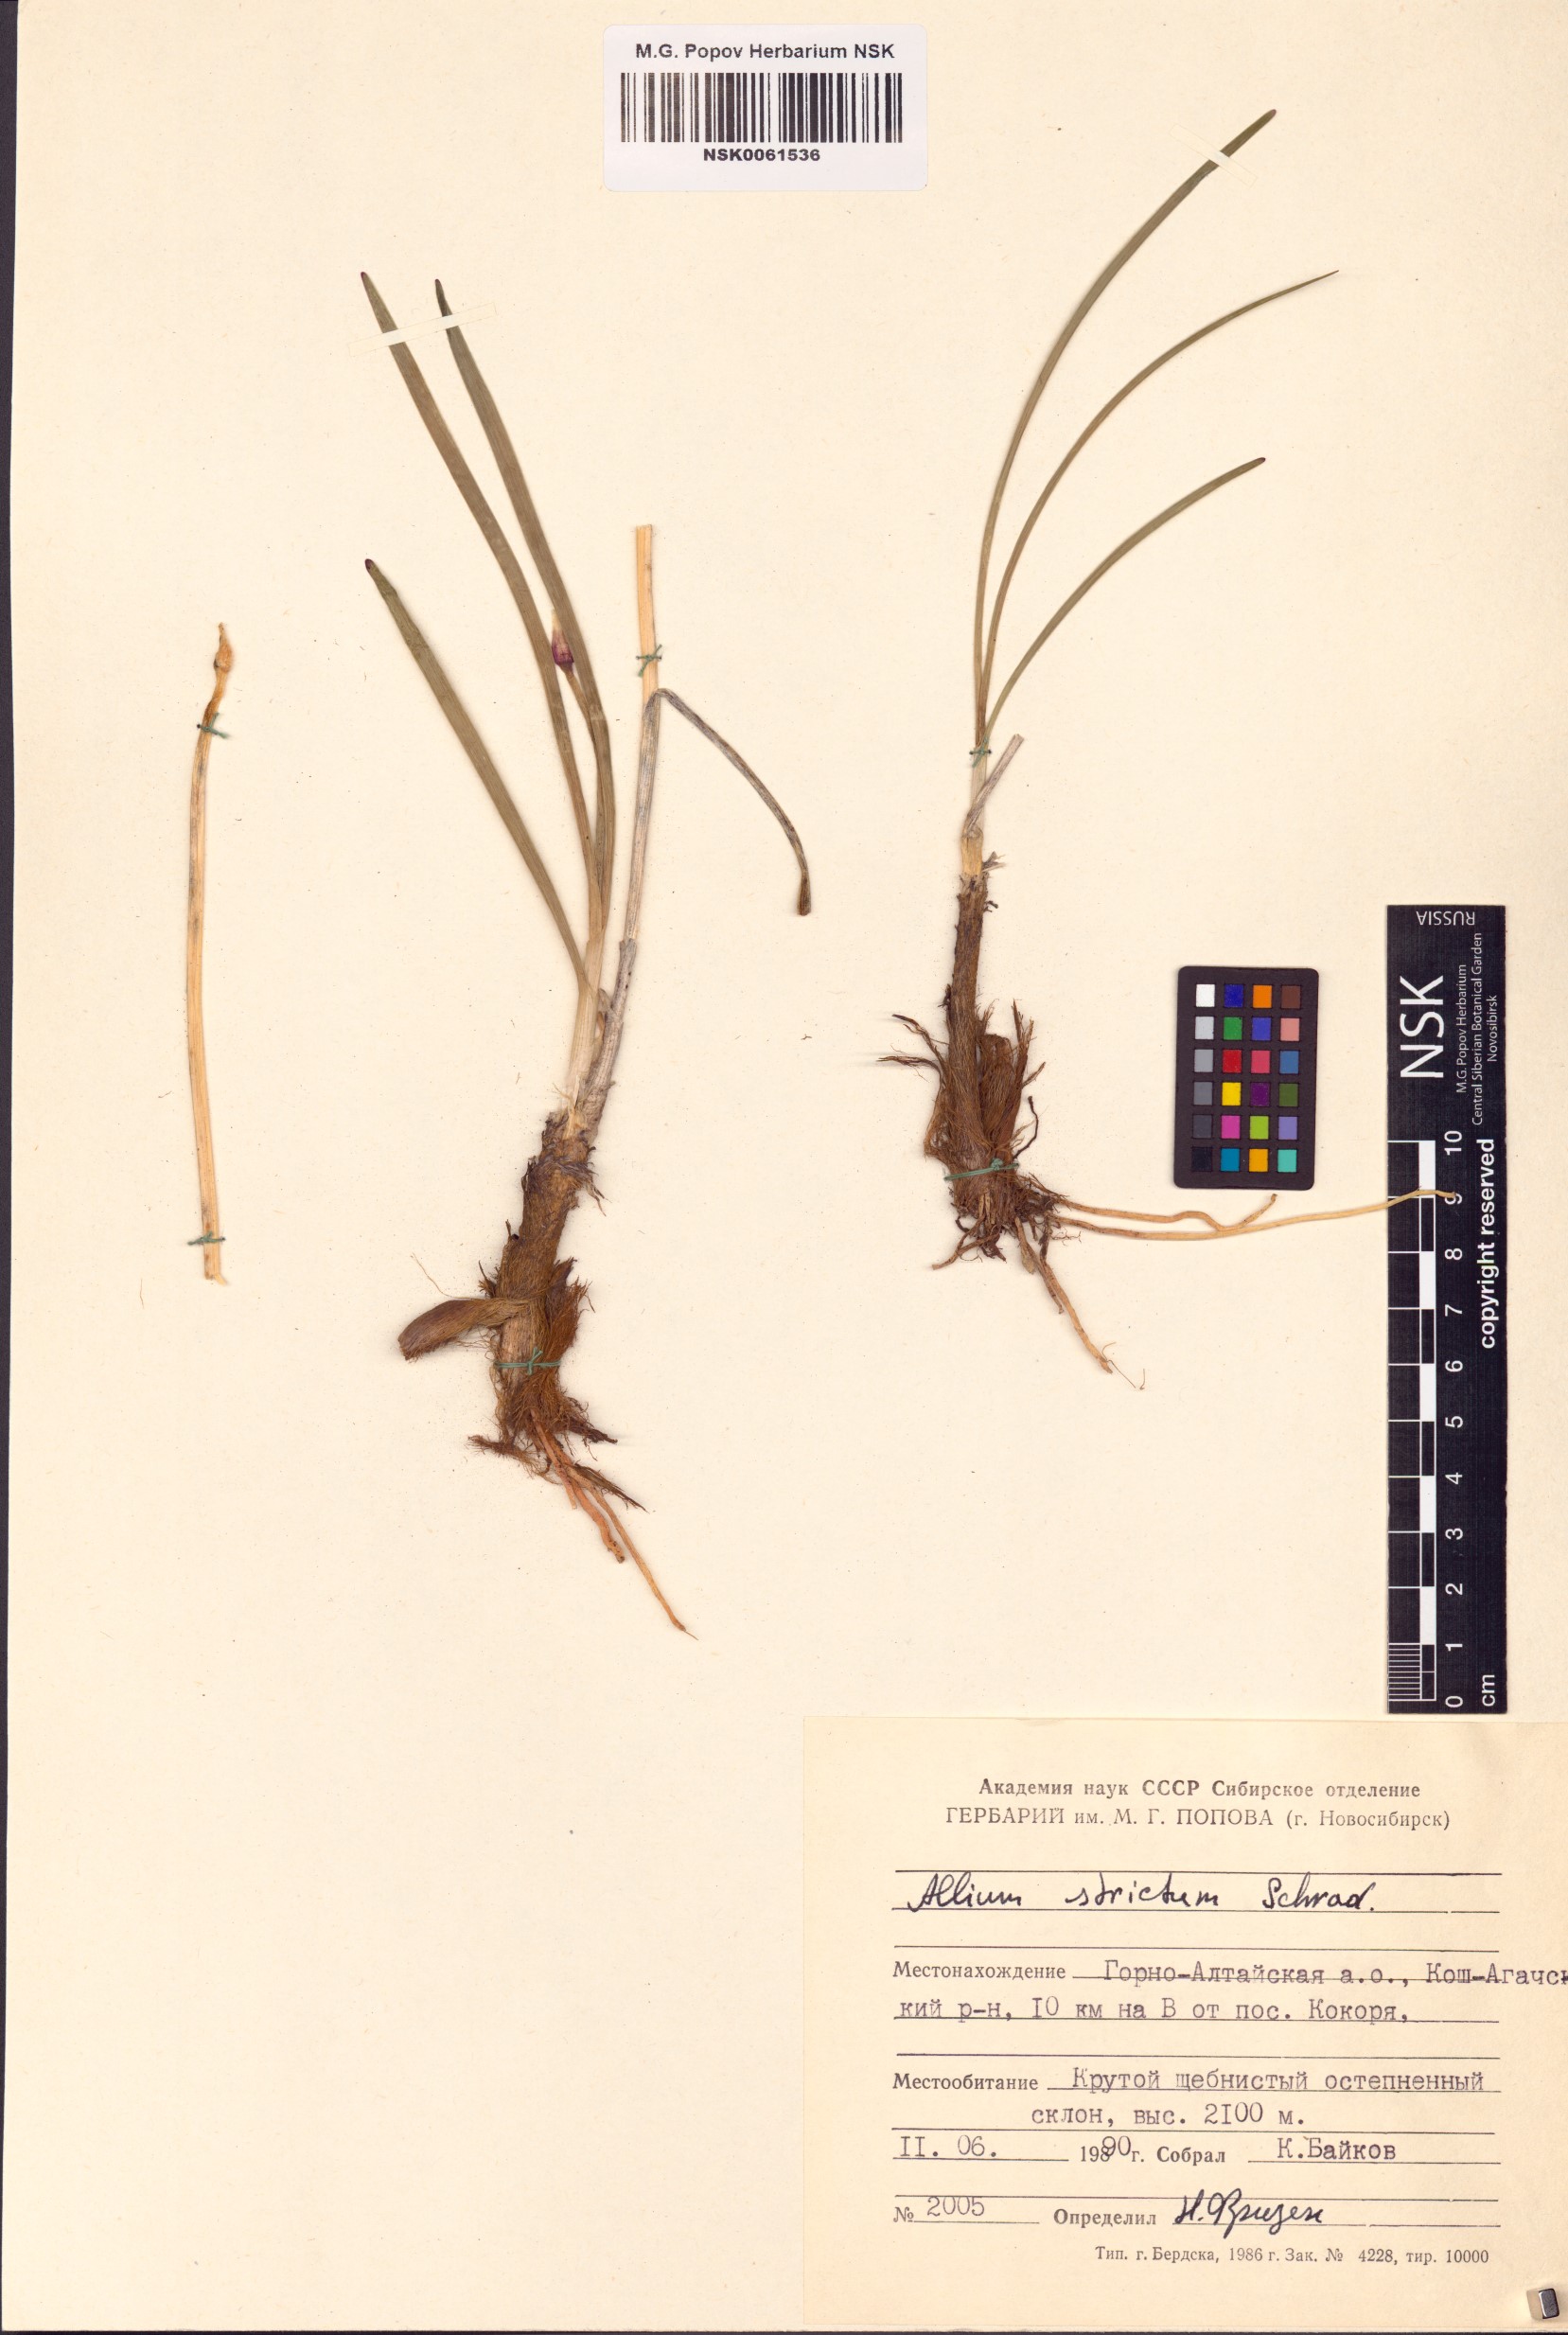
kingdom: Plantae
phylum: Tracheophyta
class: Liliopsida
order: Asparagales
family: Amaryllidaceae
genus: Allium
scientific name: Allium strictum
